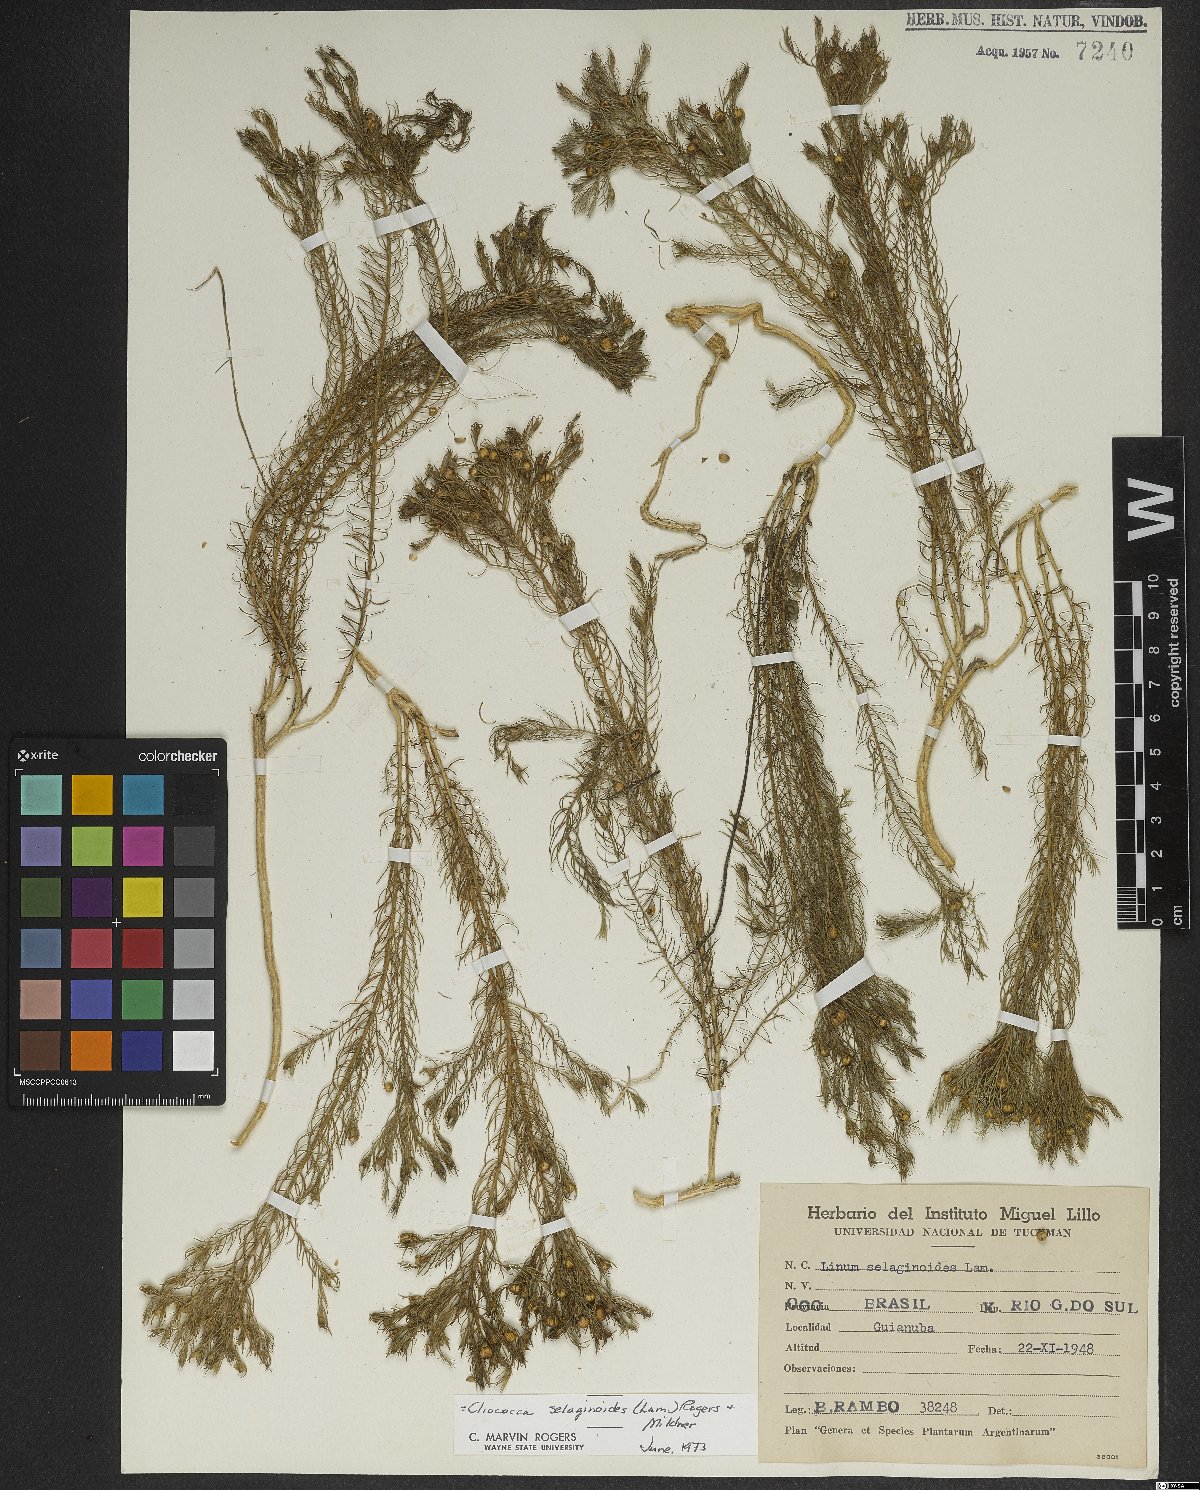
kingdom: Plantae
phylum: Tracheophyta
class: Magnoliopsida
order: Malpighiales
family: Linaceae
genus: Cliococca
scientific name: Cliococca selaginoides
